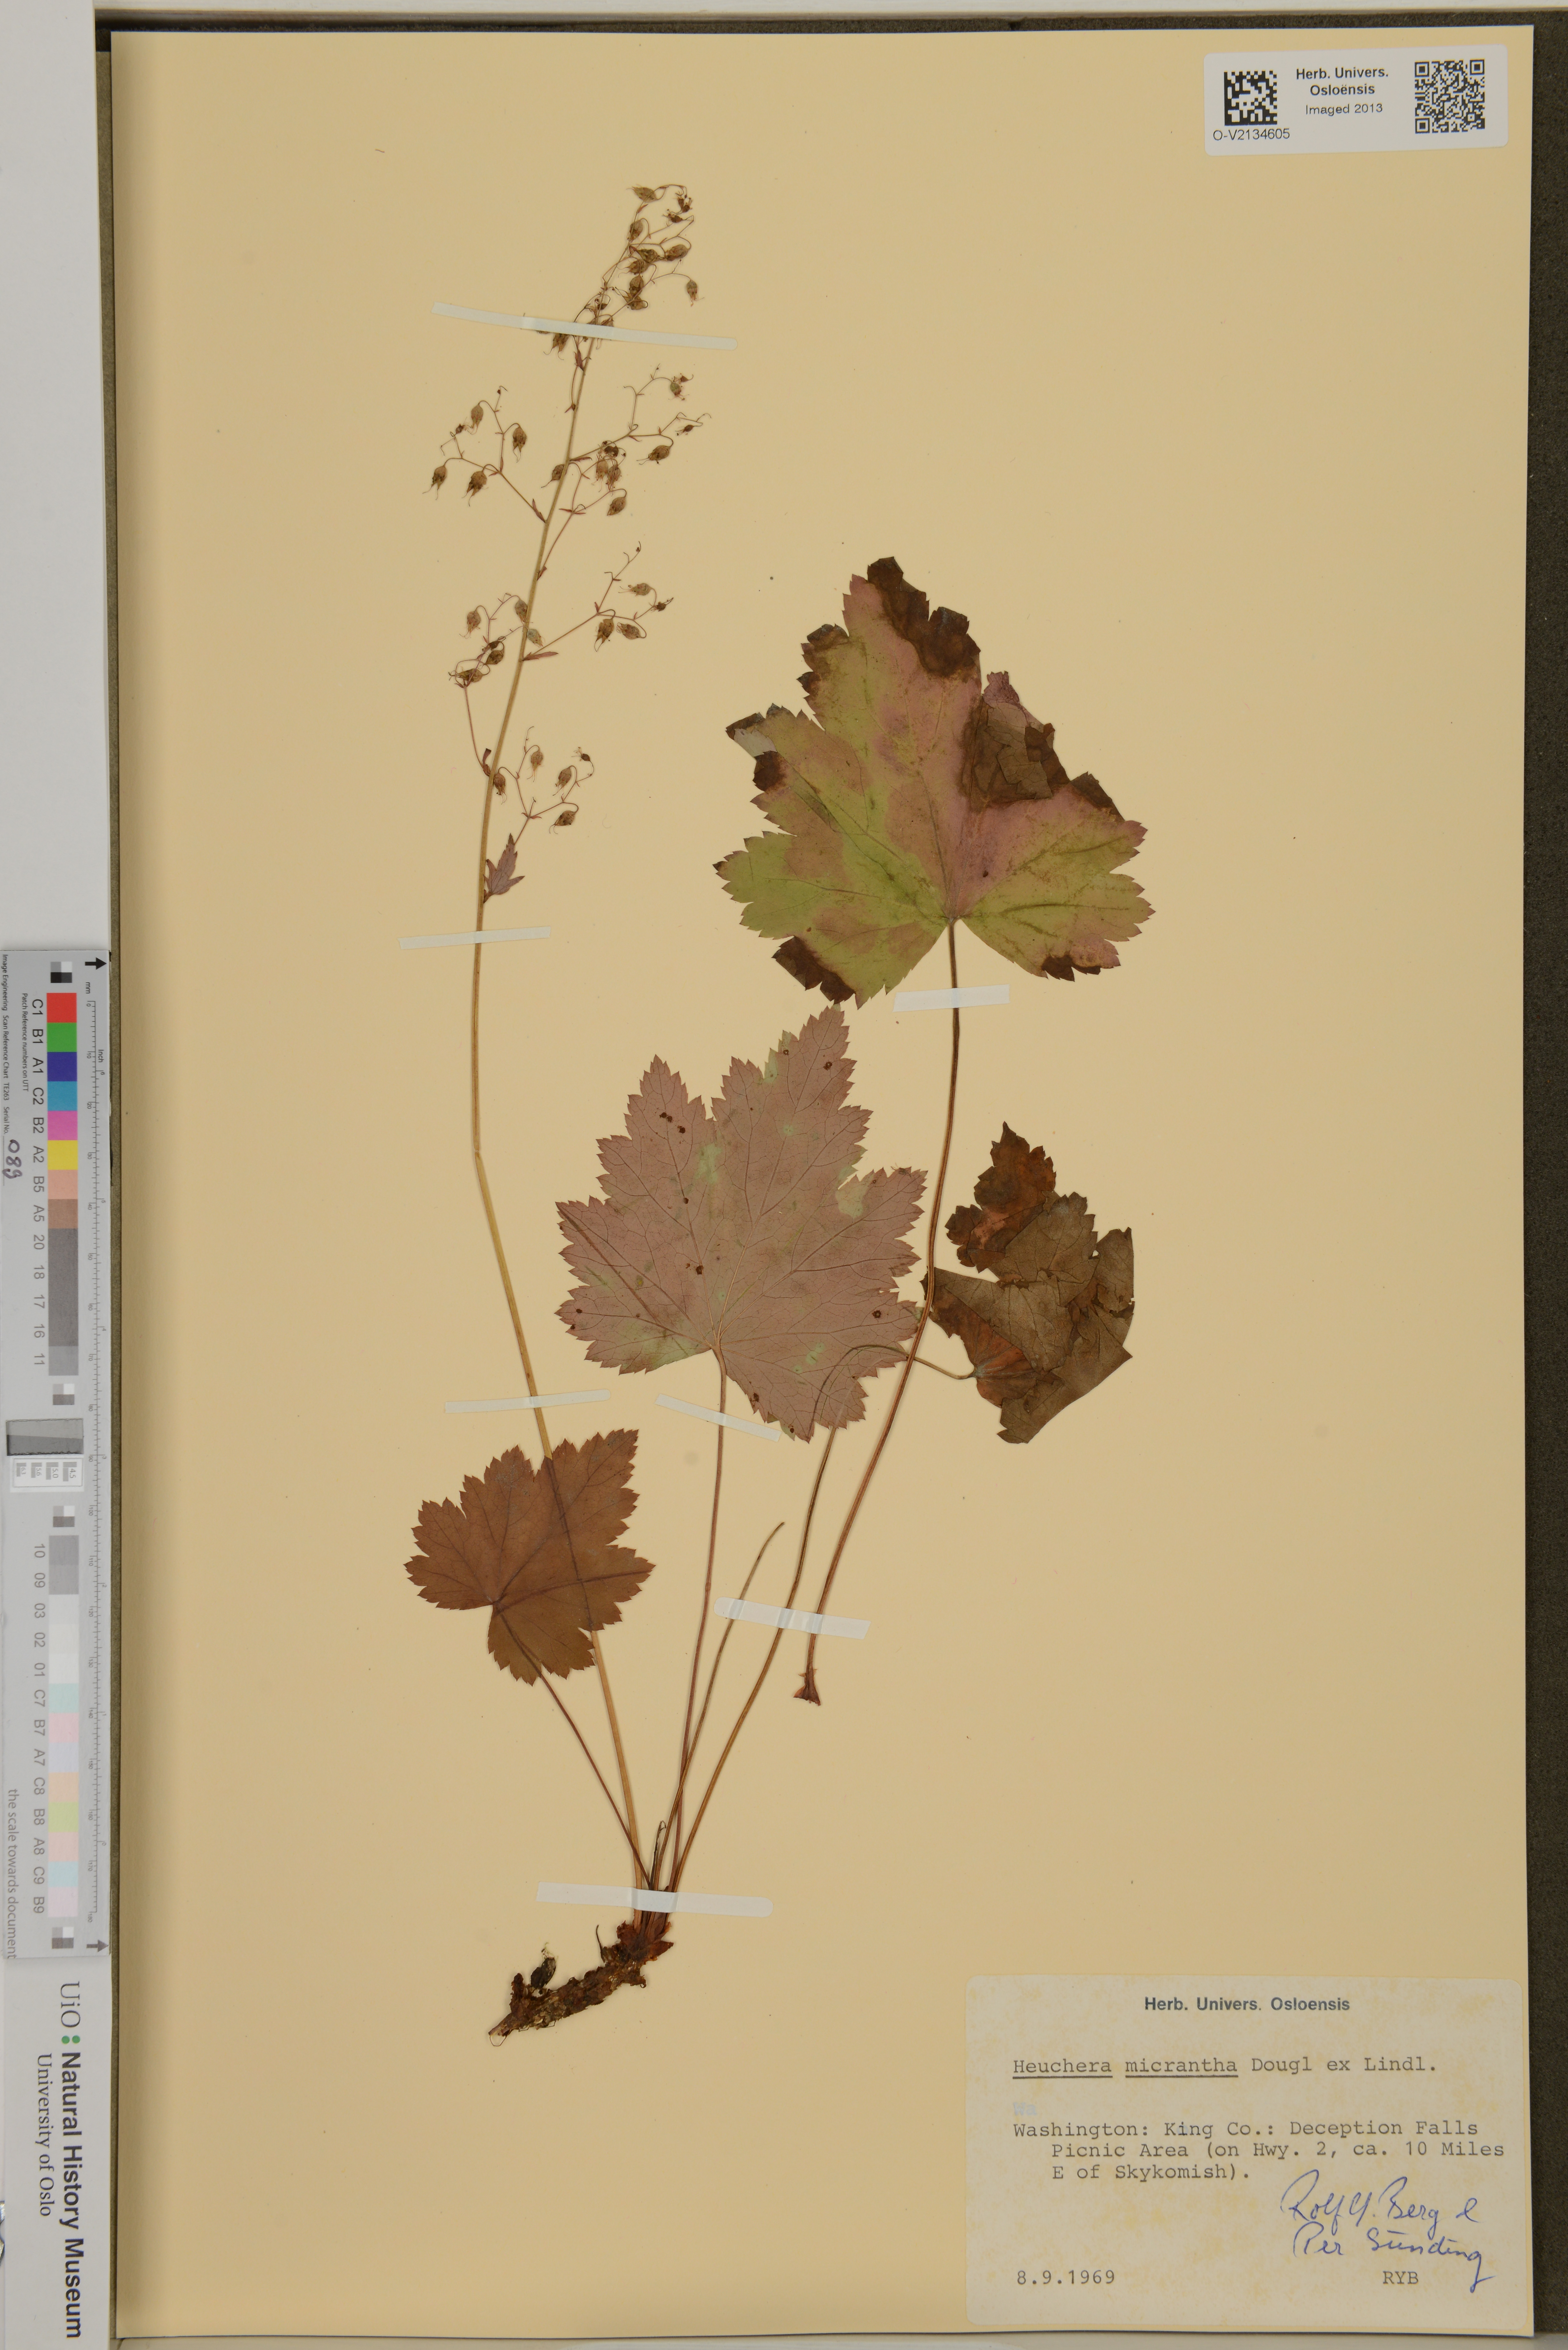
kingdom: Plantae
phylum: Tracheophyta
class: Magnoliopsida
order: Saxifragales
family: Saxifragaceae
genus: Heuchera
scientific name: Heuchera micrantha
